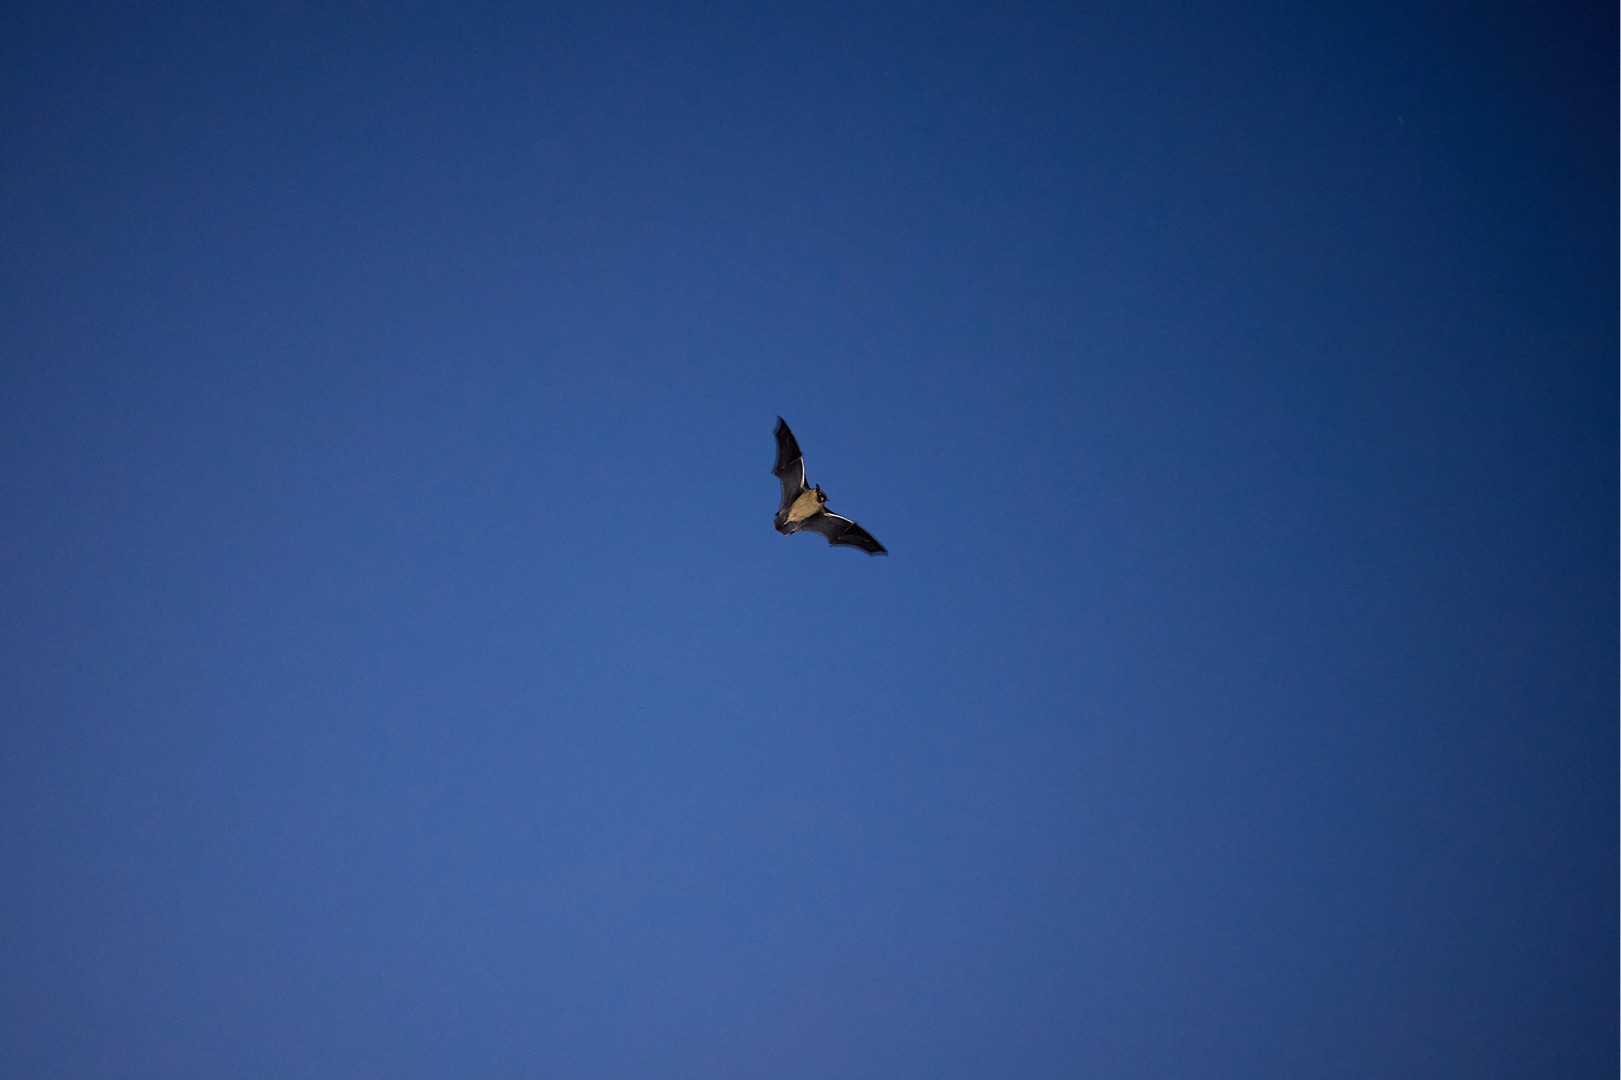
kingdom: Animalia
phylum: Chordata
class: Mammalia
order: Chiroptera
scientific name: Chiroptera
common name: Flagermus
